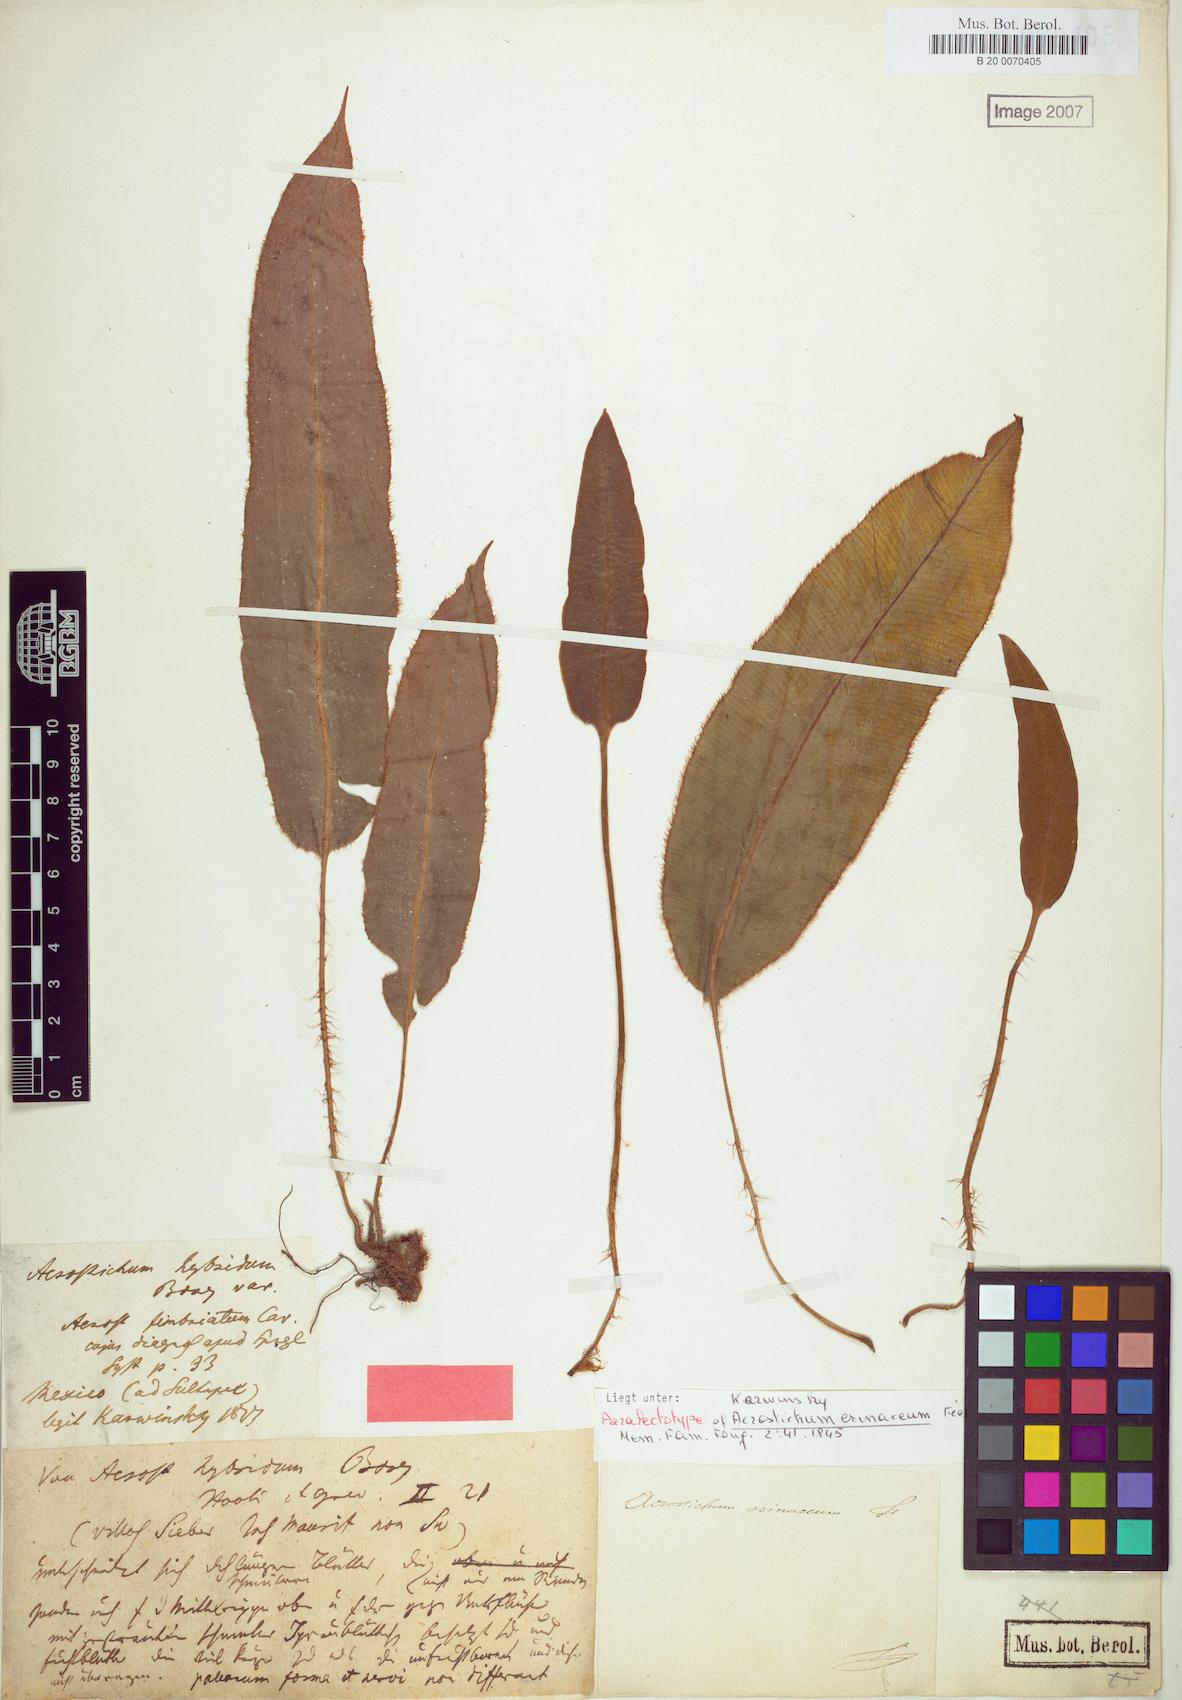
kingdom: Plantae
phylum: Tracheophyta
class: Polypodiopsida
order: Polypodiales
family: Dryopteridaceae
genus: Elaphoglossum
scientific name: Elaphoglossum erinaceum
